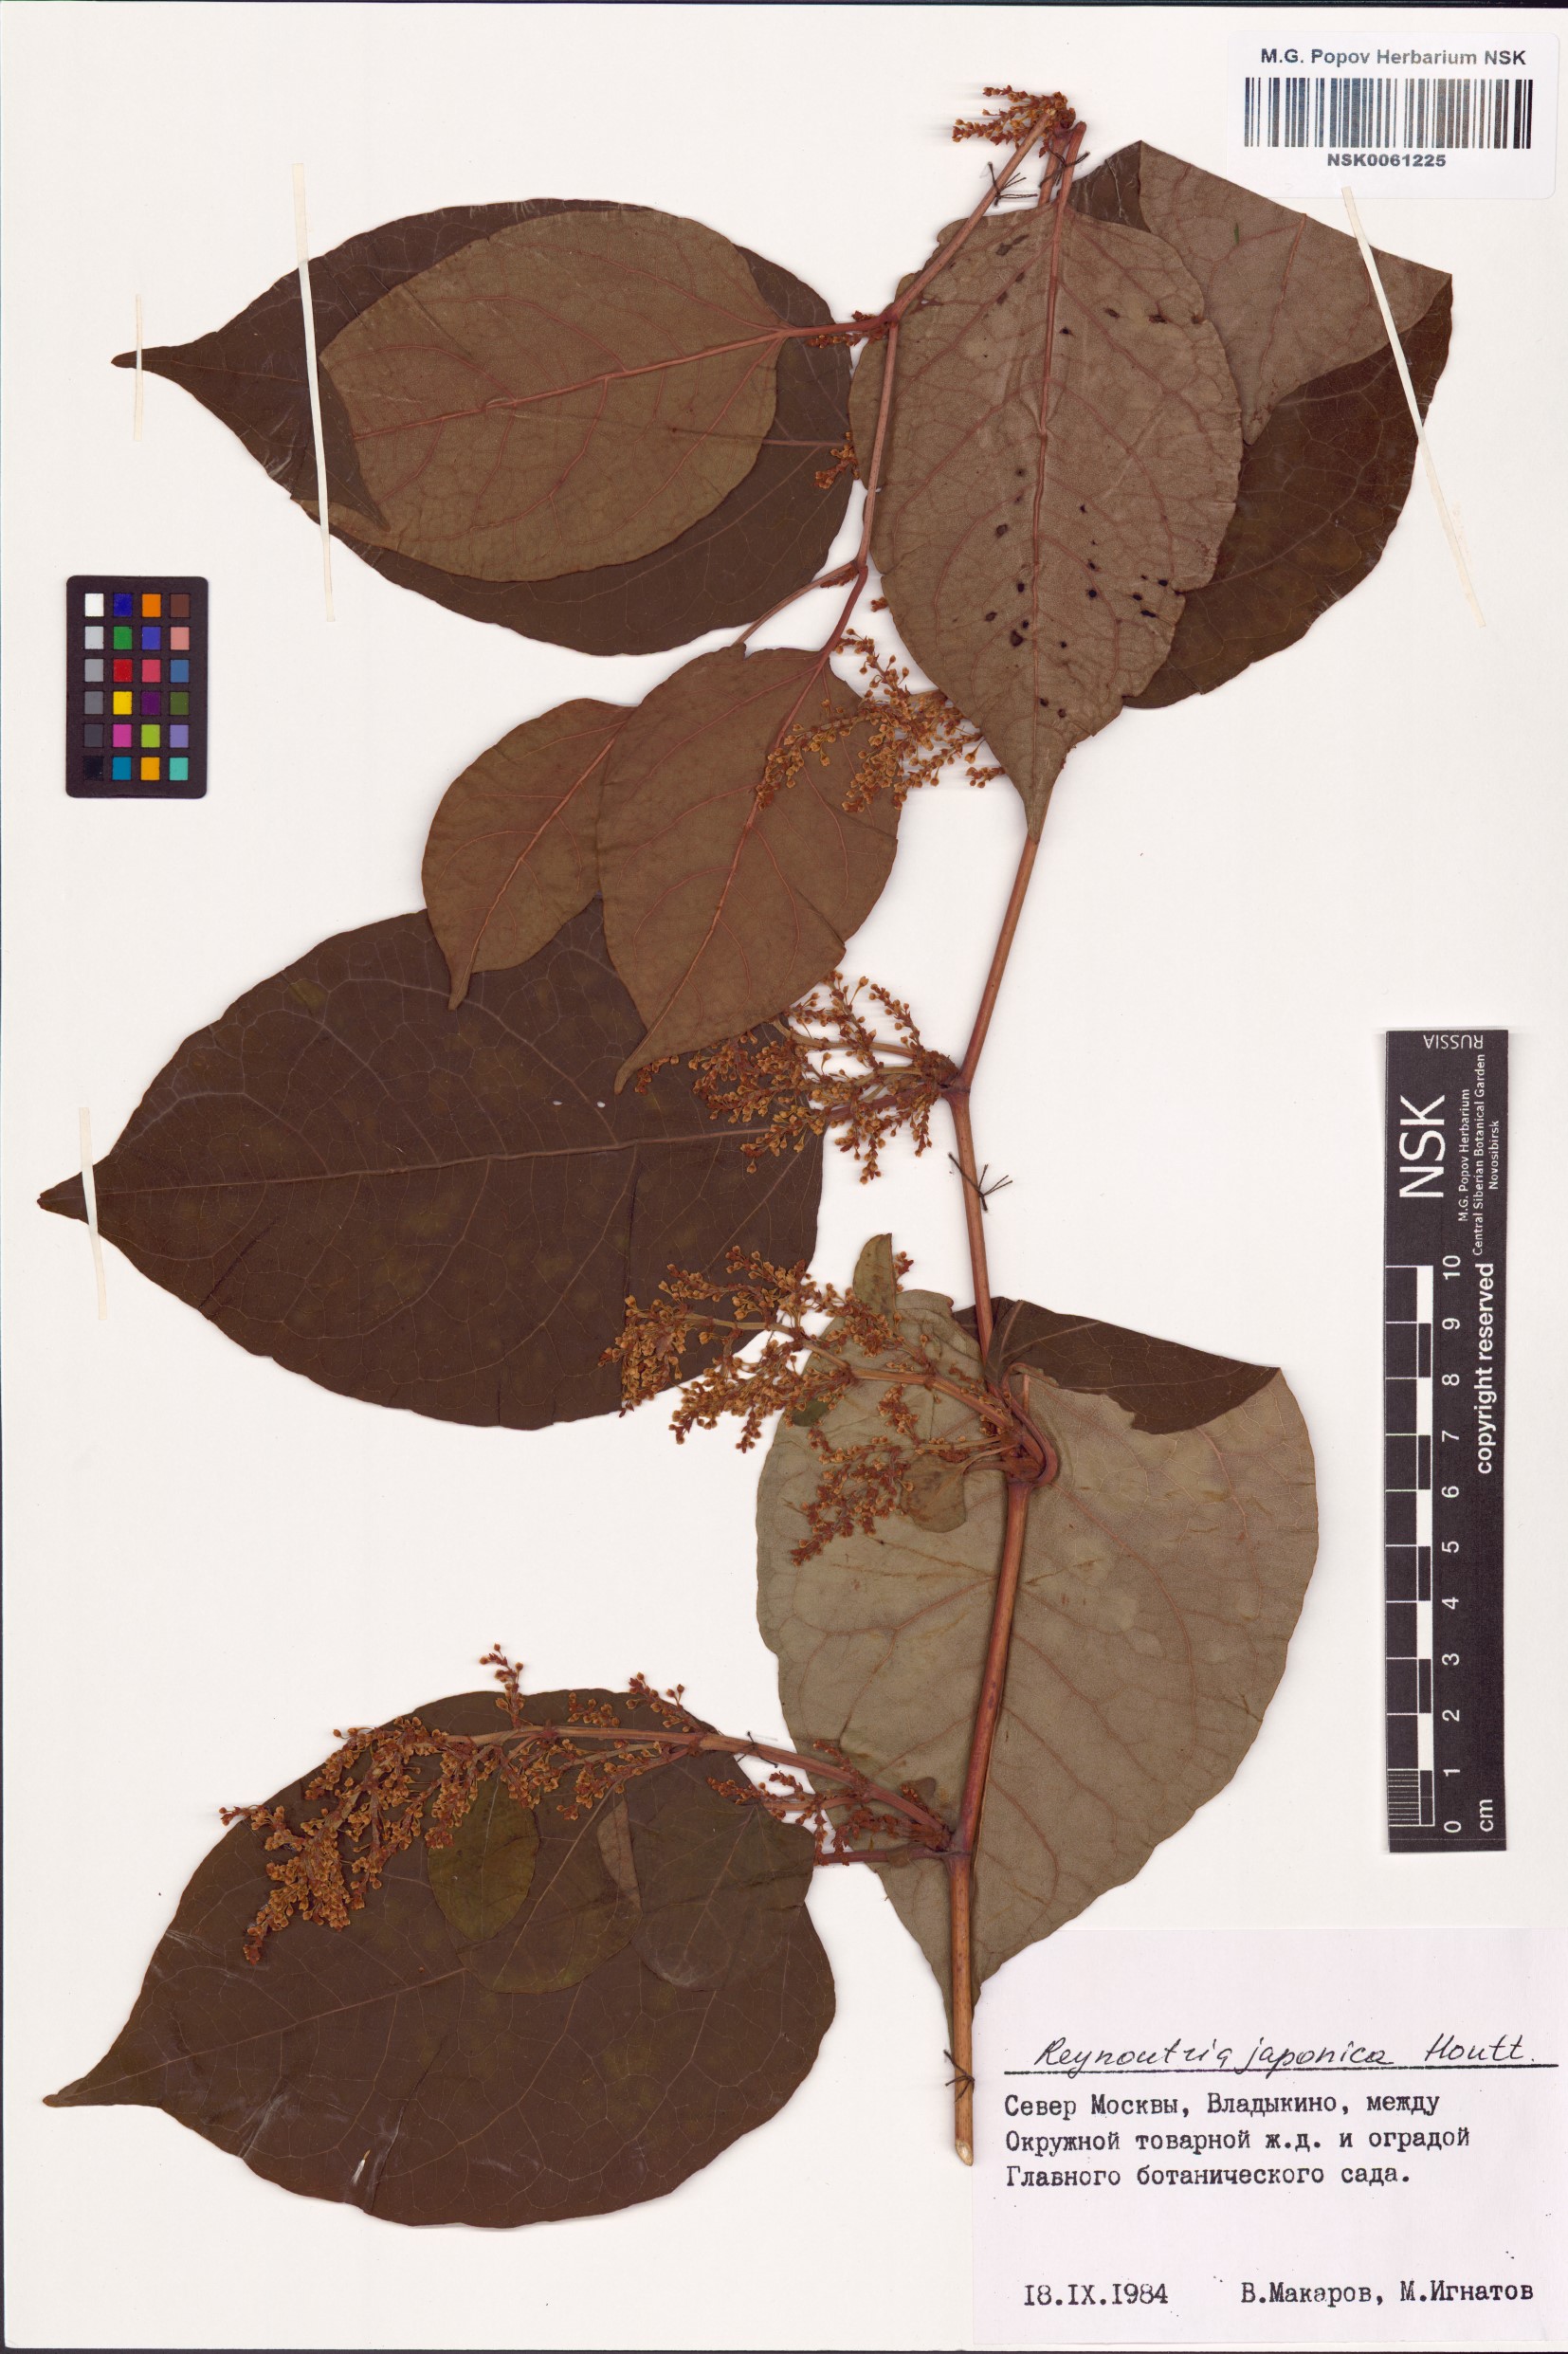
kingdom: Plantae
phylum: Tracheophyta
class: Magnoliopsida
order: Caryophyllales
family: Polygonaceae
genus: Reynoutria
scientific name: Reynoutria japonica
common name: Japanese knotweed
